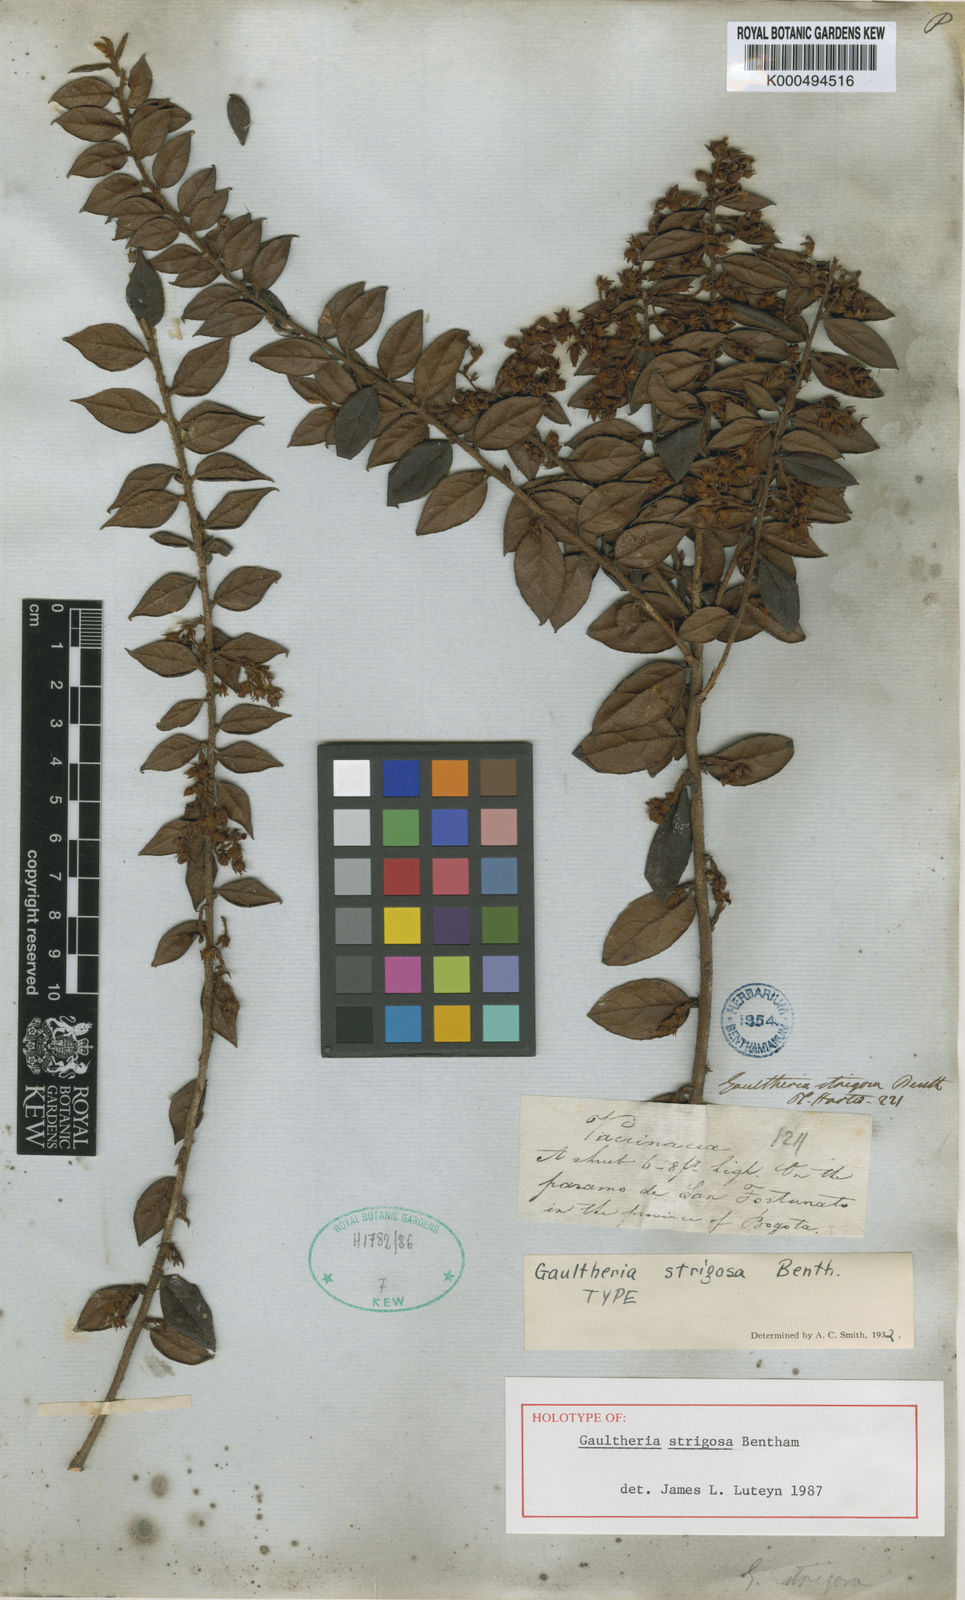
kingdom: Plantae
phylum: Tracheophyta
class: Magnoliopsida
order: Ericales
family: Ericaceae
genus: Gaultheria
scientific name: Gaultheria strigosa
